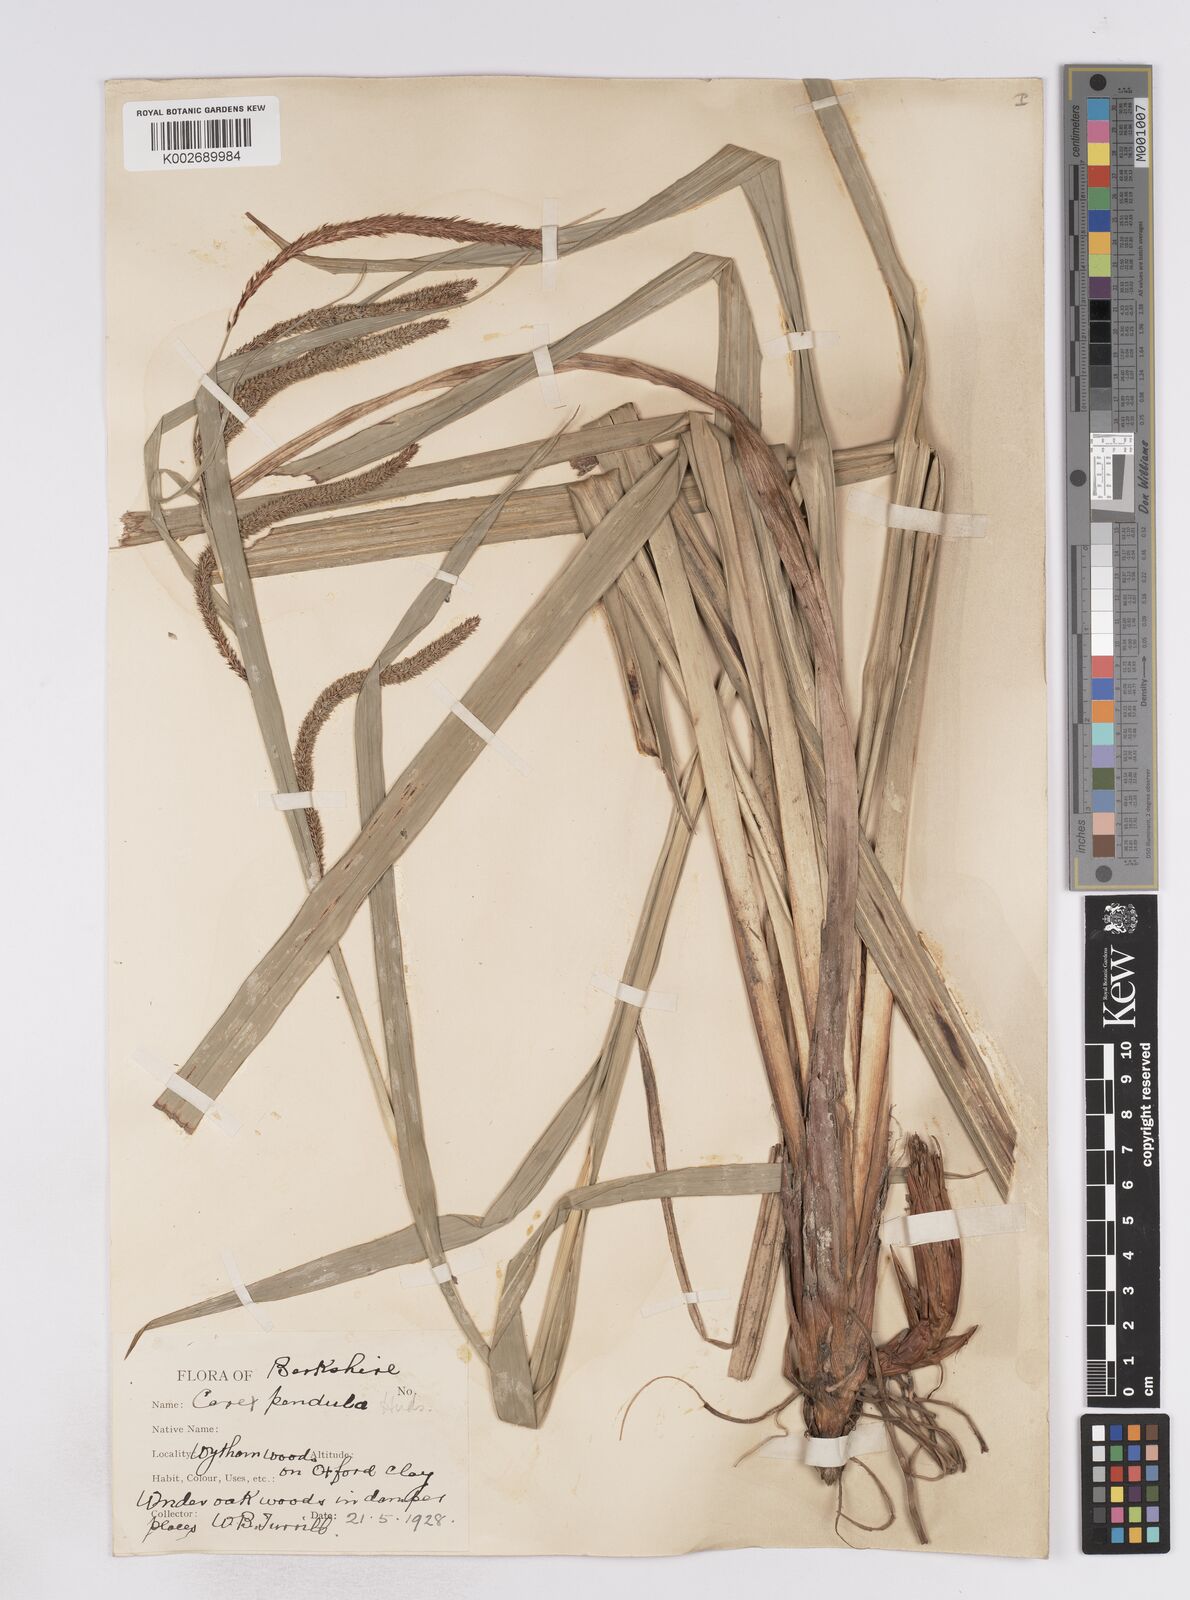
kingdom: Plantae
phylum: Tracheophyta
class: Liliopsida
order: Poales
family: Cyperaceae
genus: Carex
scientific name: Carex pendula
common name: Pendulous sedge
